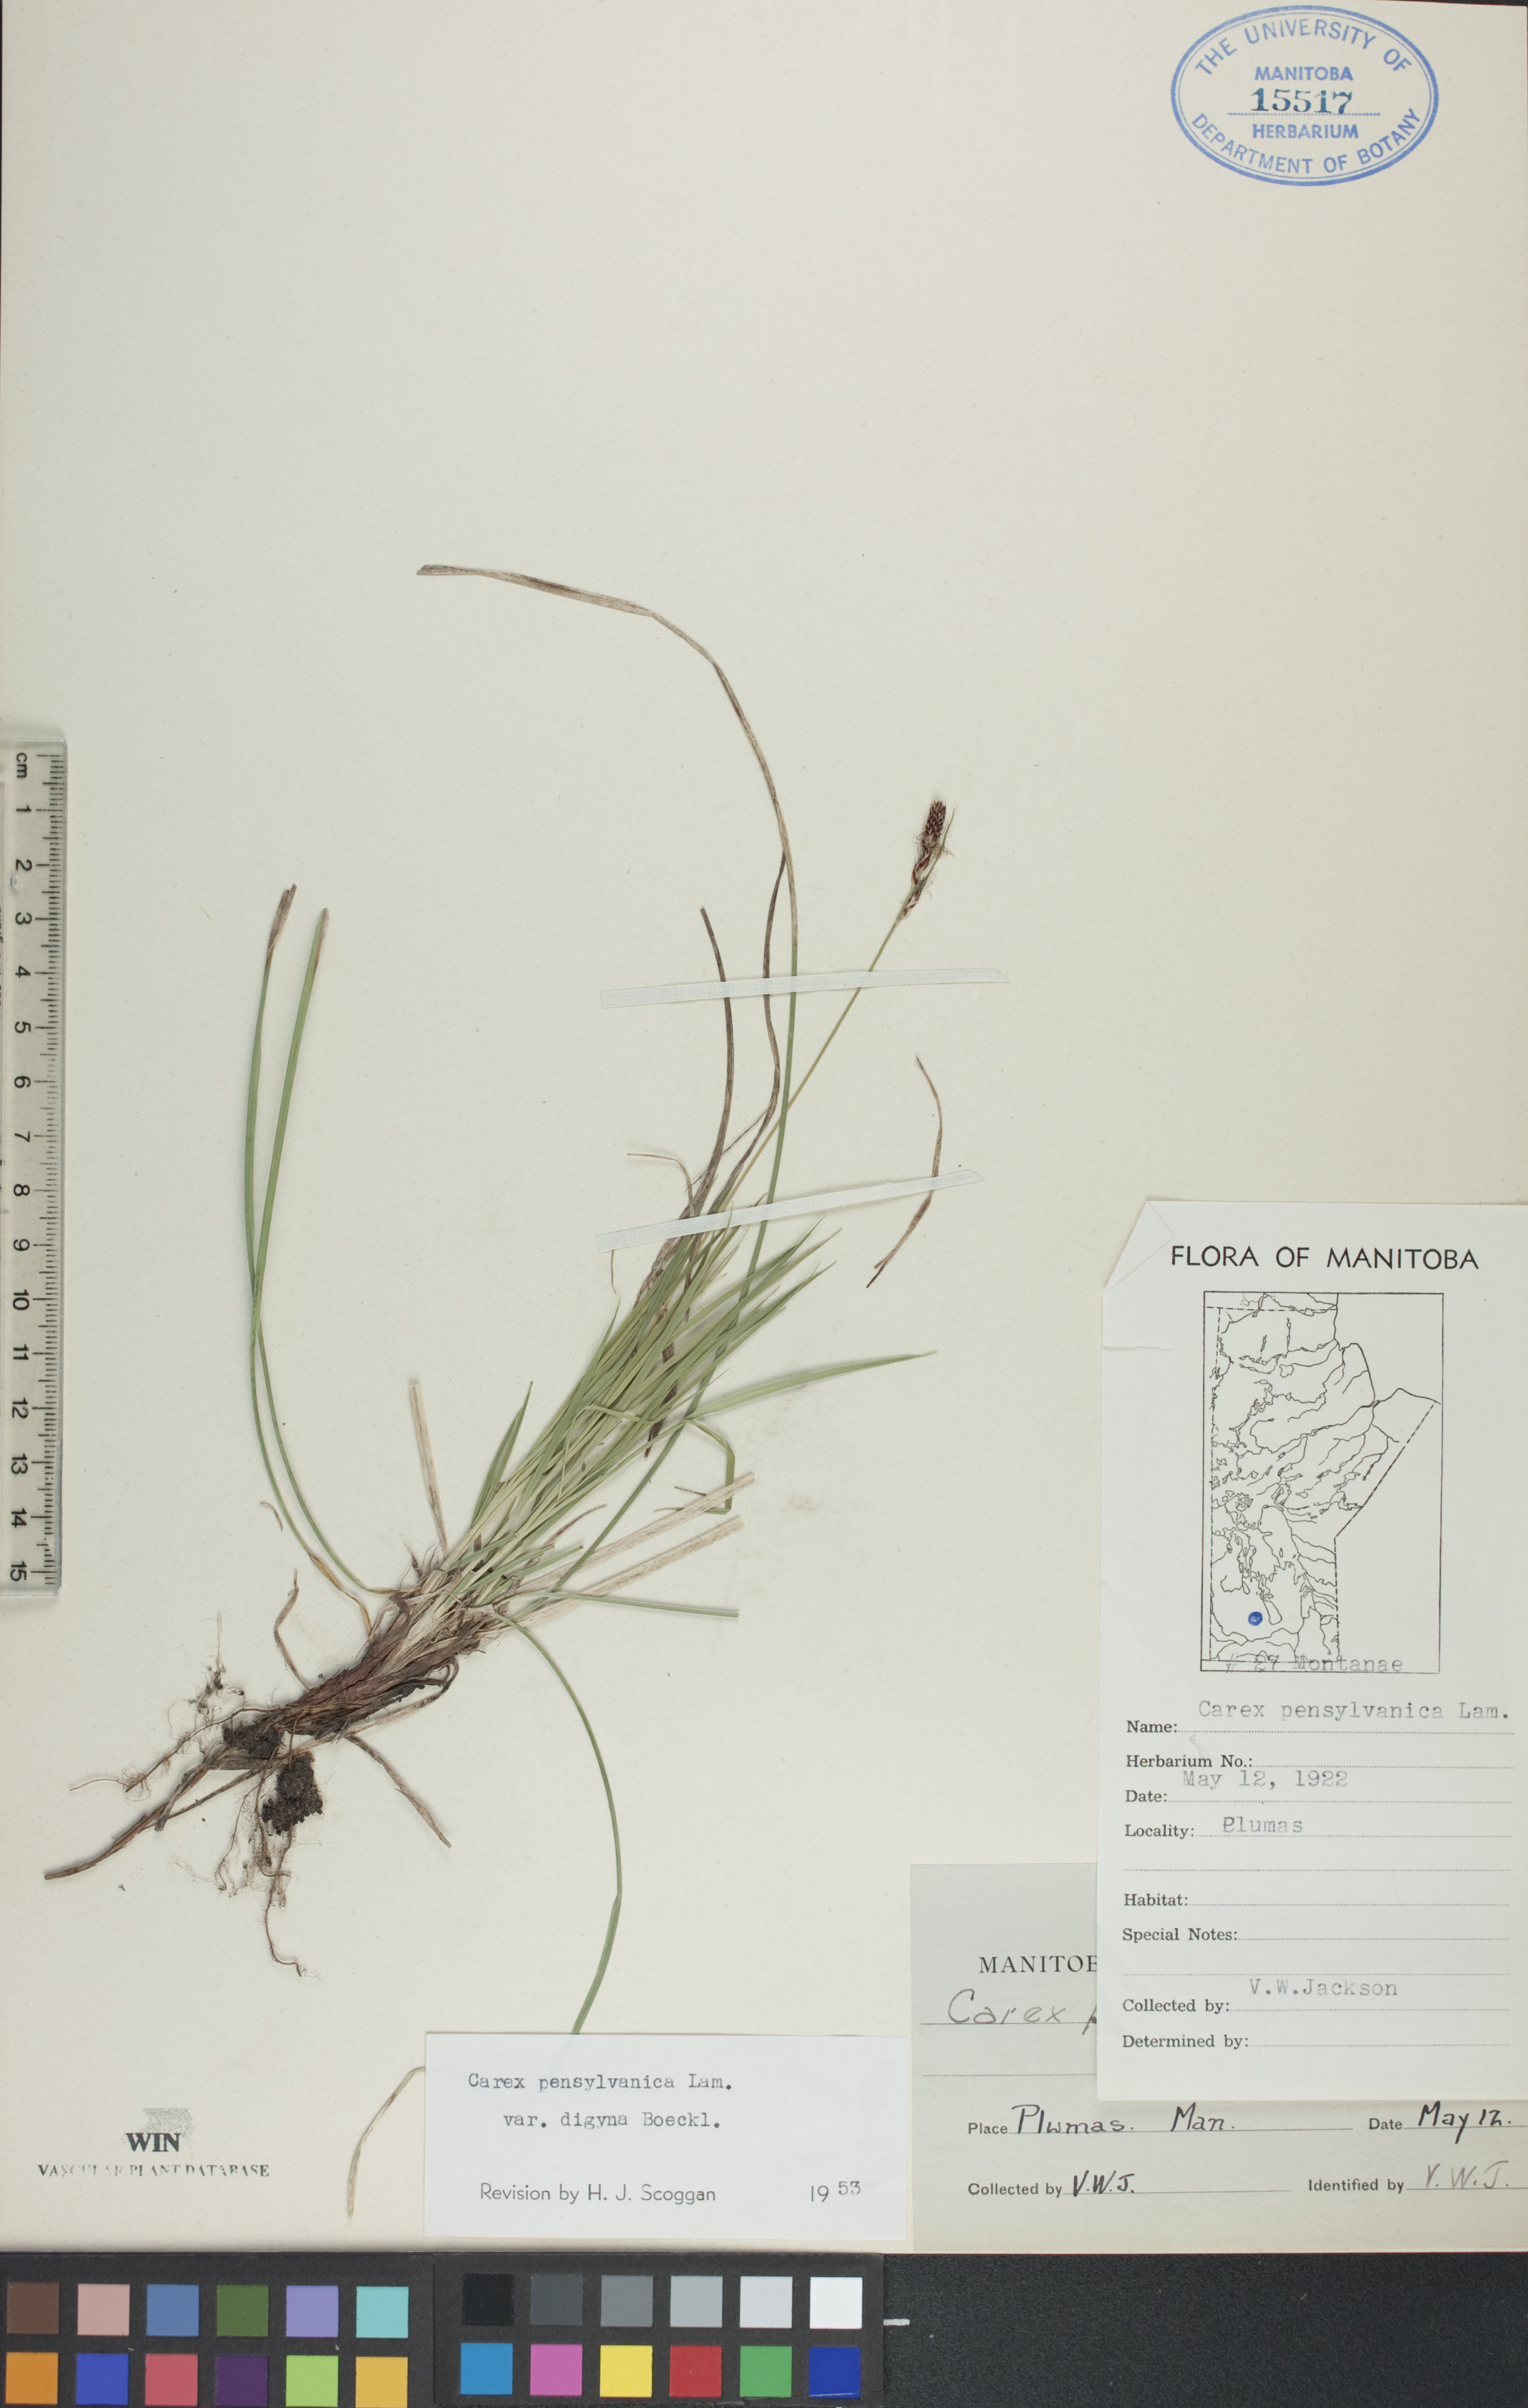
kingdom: Plantae
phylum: Tracheophyta
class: Liliopsida
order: Poales
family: Cyperaceae
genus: Carex
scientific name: Carex pensylvanica
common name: Common oak sedge
